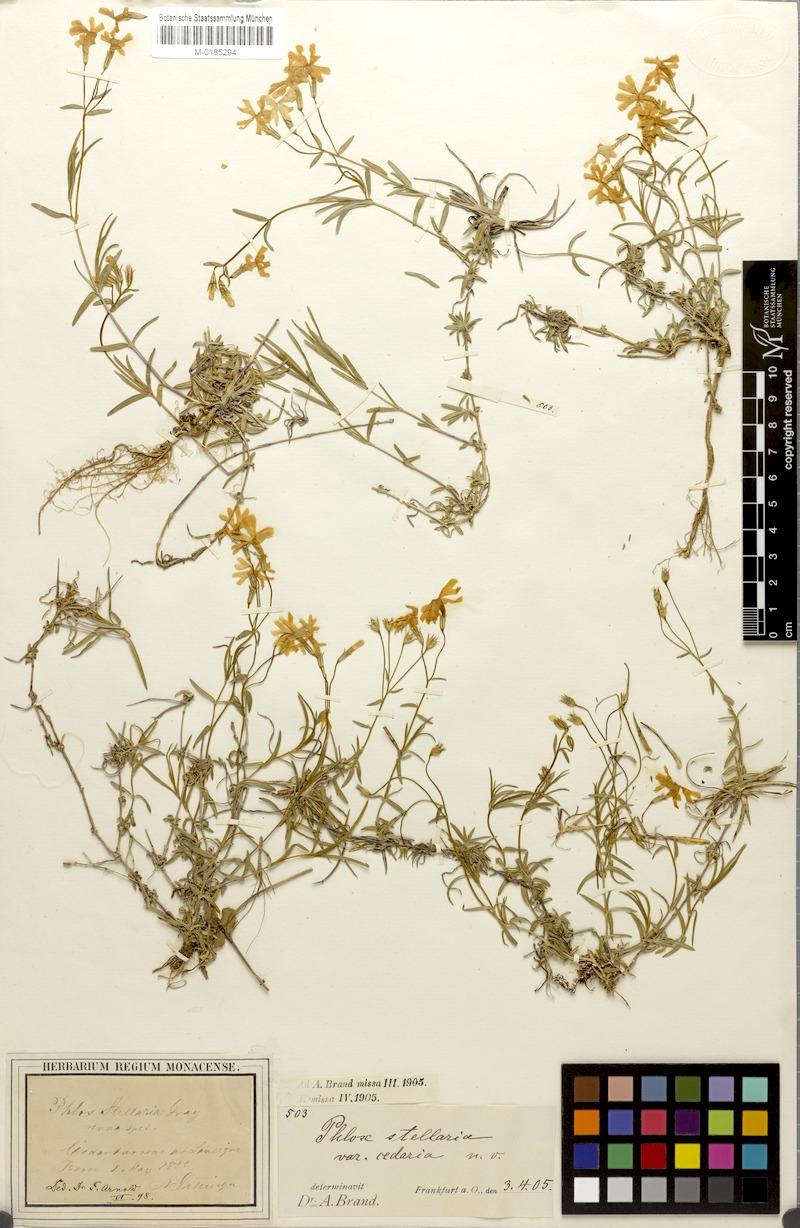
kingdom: Plantae
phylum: Tracheophyta
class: Magnoliopsida
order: Ericales
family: Polemoniaceae
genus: Phlox
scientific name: Phlox bifida
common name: Sand phlox
